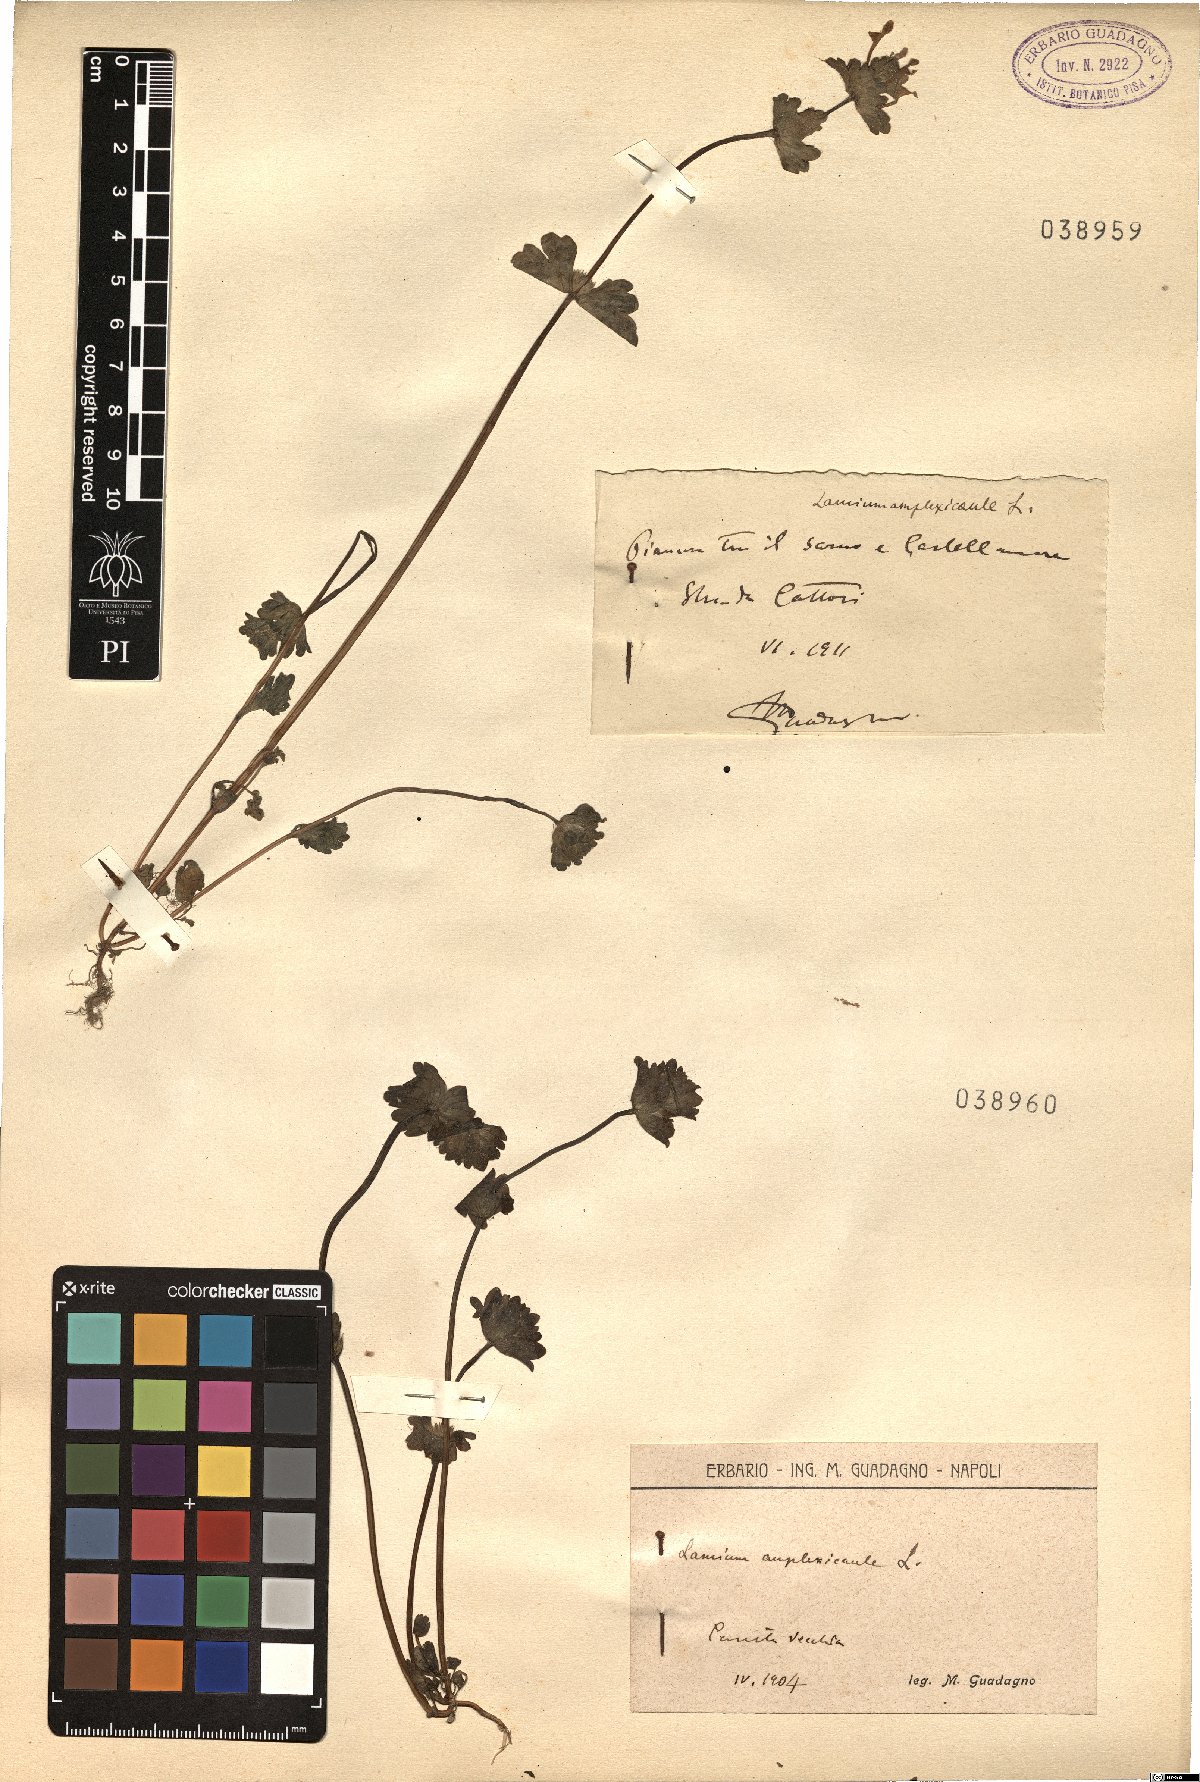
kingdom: Plantae
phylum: Tracheophyta
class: Magnoliopsida
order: Lamiales
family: Lamiaceae
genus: Lamium
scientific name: Lamium amplexicaule
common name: Henbit dead-nettle
